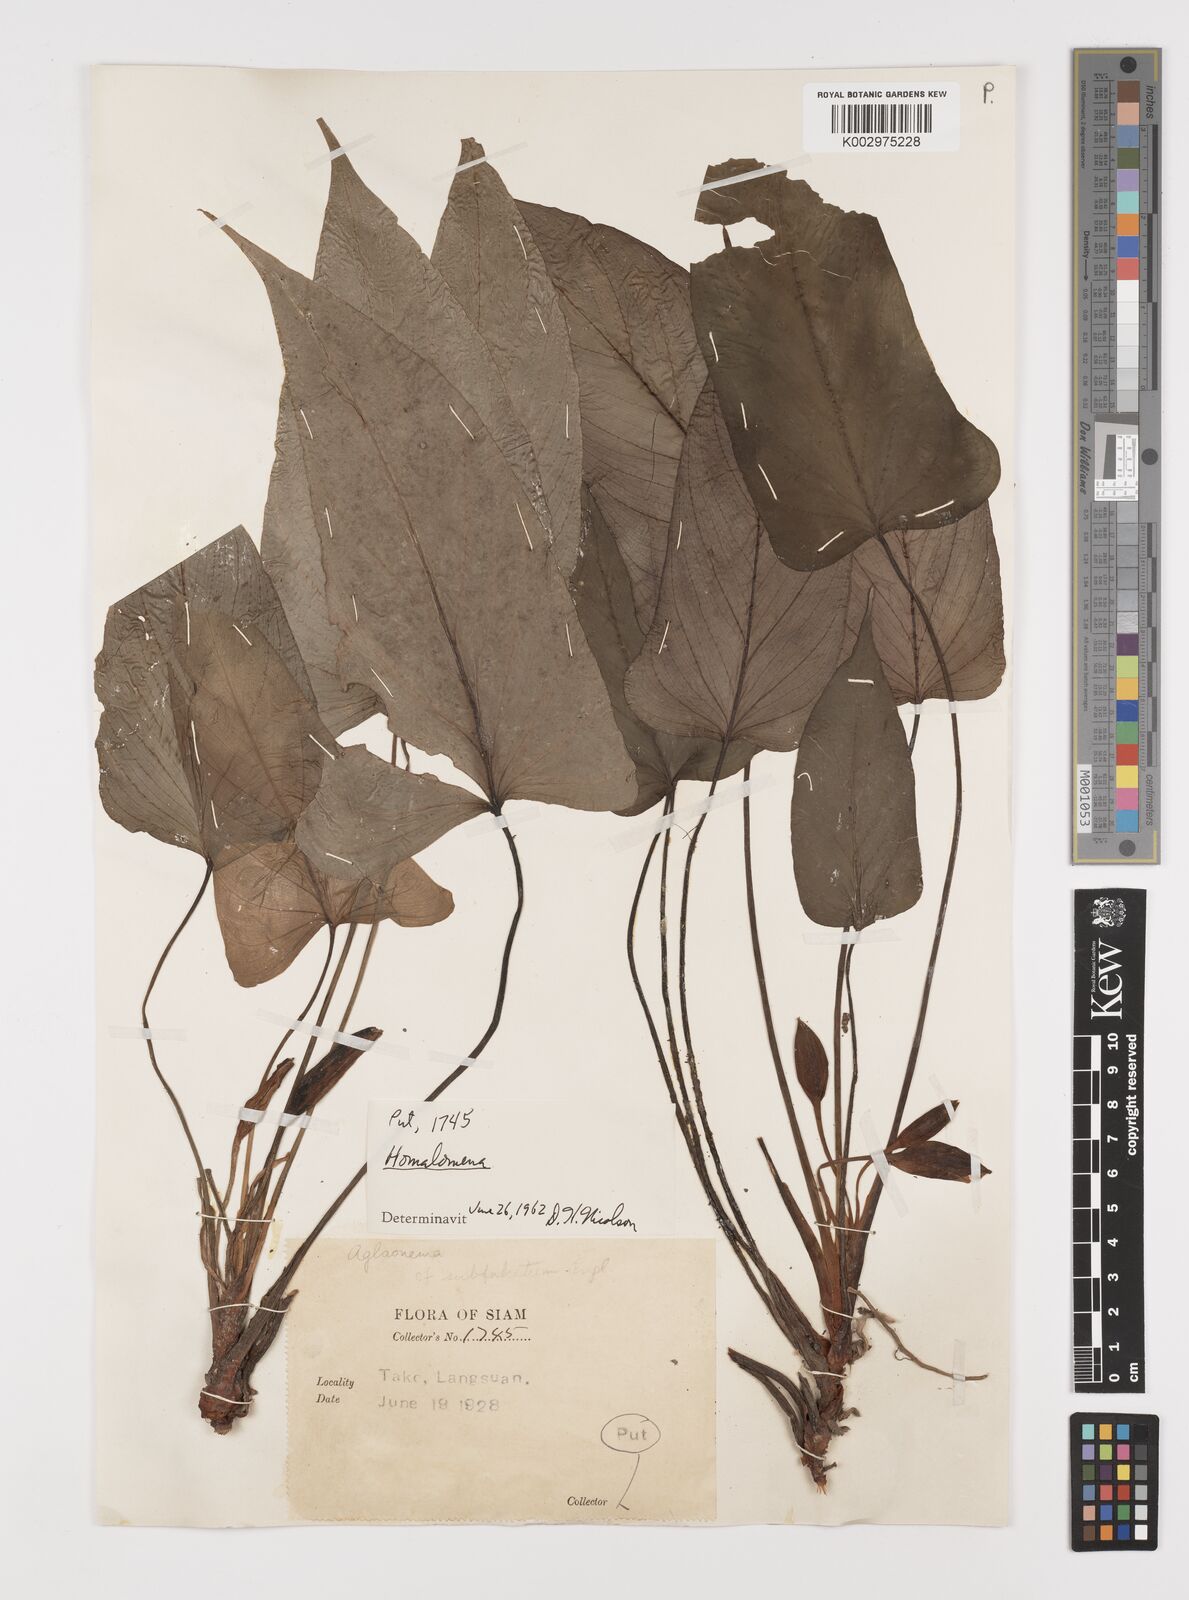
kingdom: Plantae
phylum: Tracheophyta
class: Liliopsida
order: Alismatales
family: Araceae
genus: Homalomena
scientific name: Homalomena griffithii
